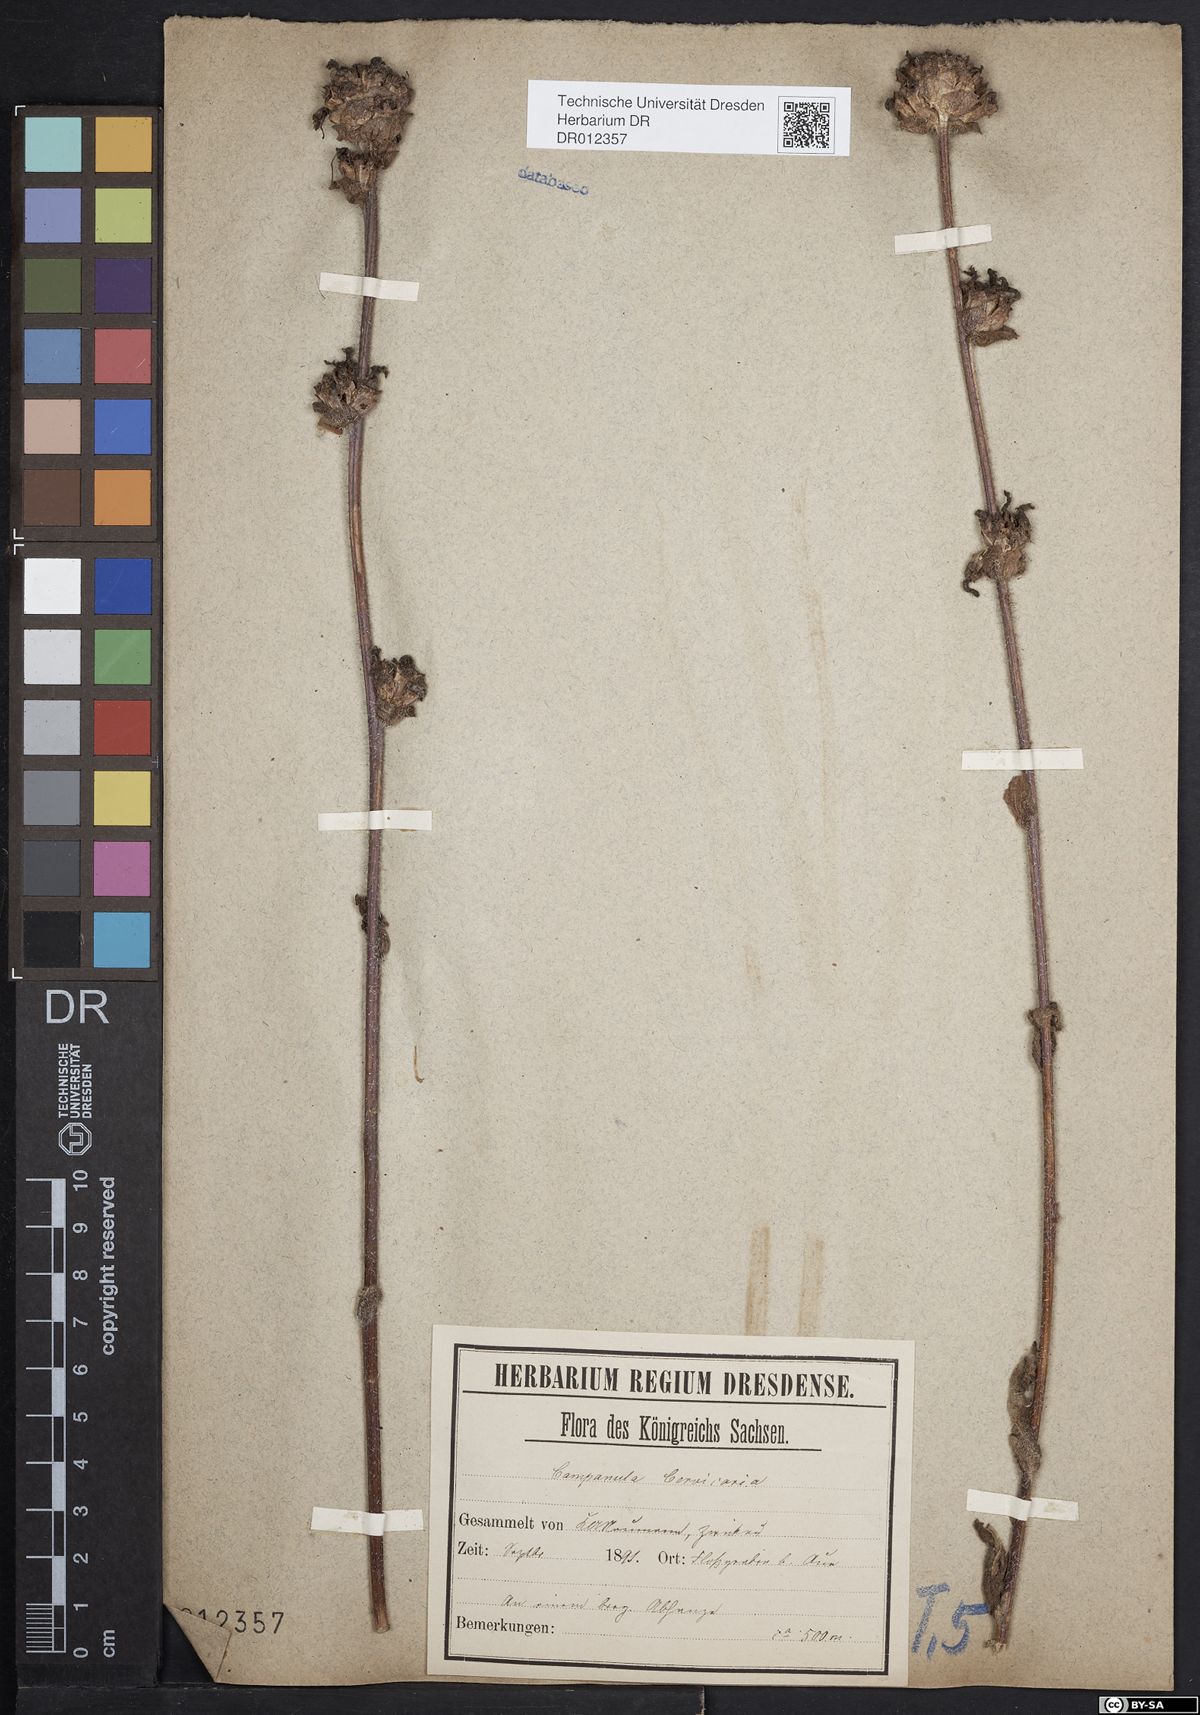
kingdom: Plantae
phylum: Tracheophyta
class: Magnoliopsida
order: Asterales
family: Campanulaceae
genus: Campanula
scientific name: Campanula cervicaria
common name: Bristly bellflower
